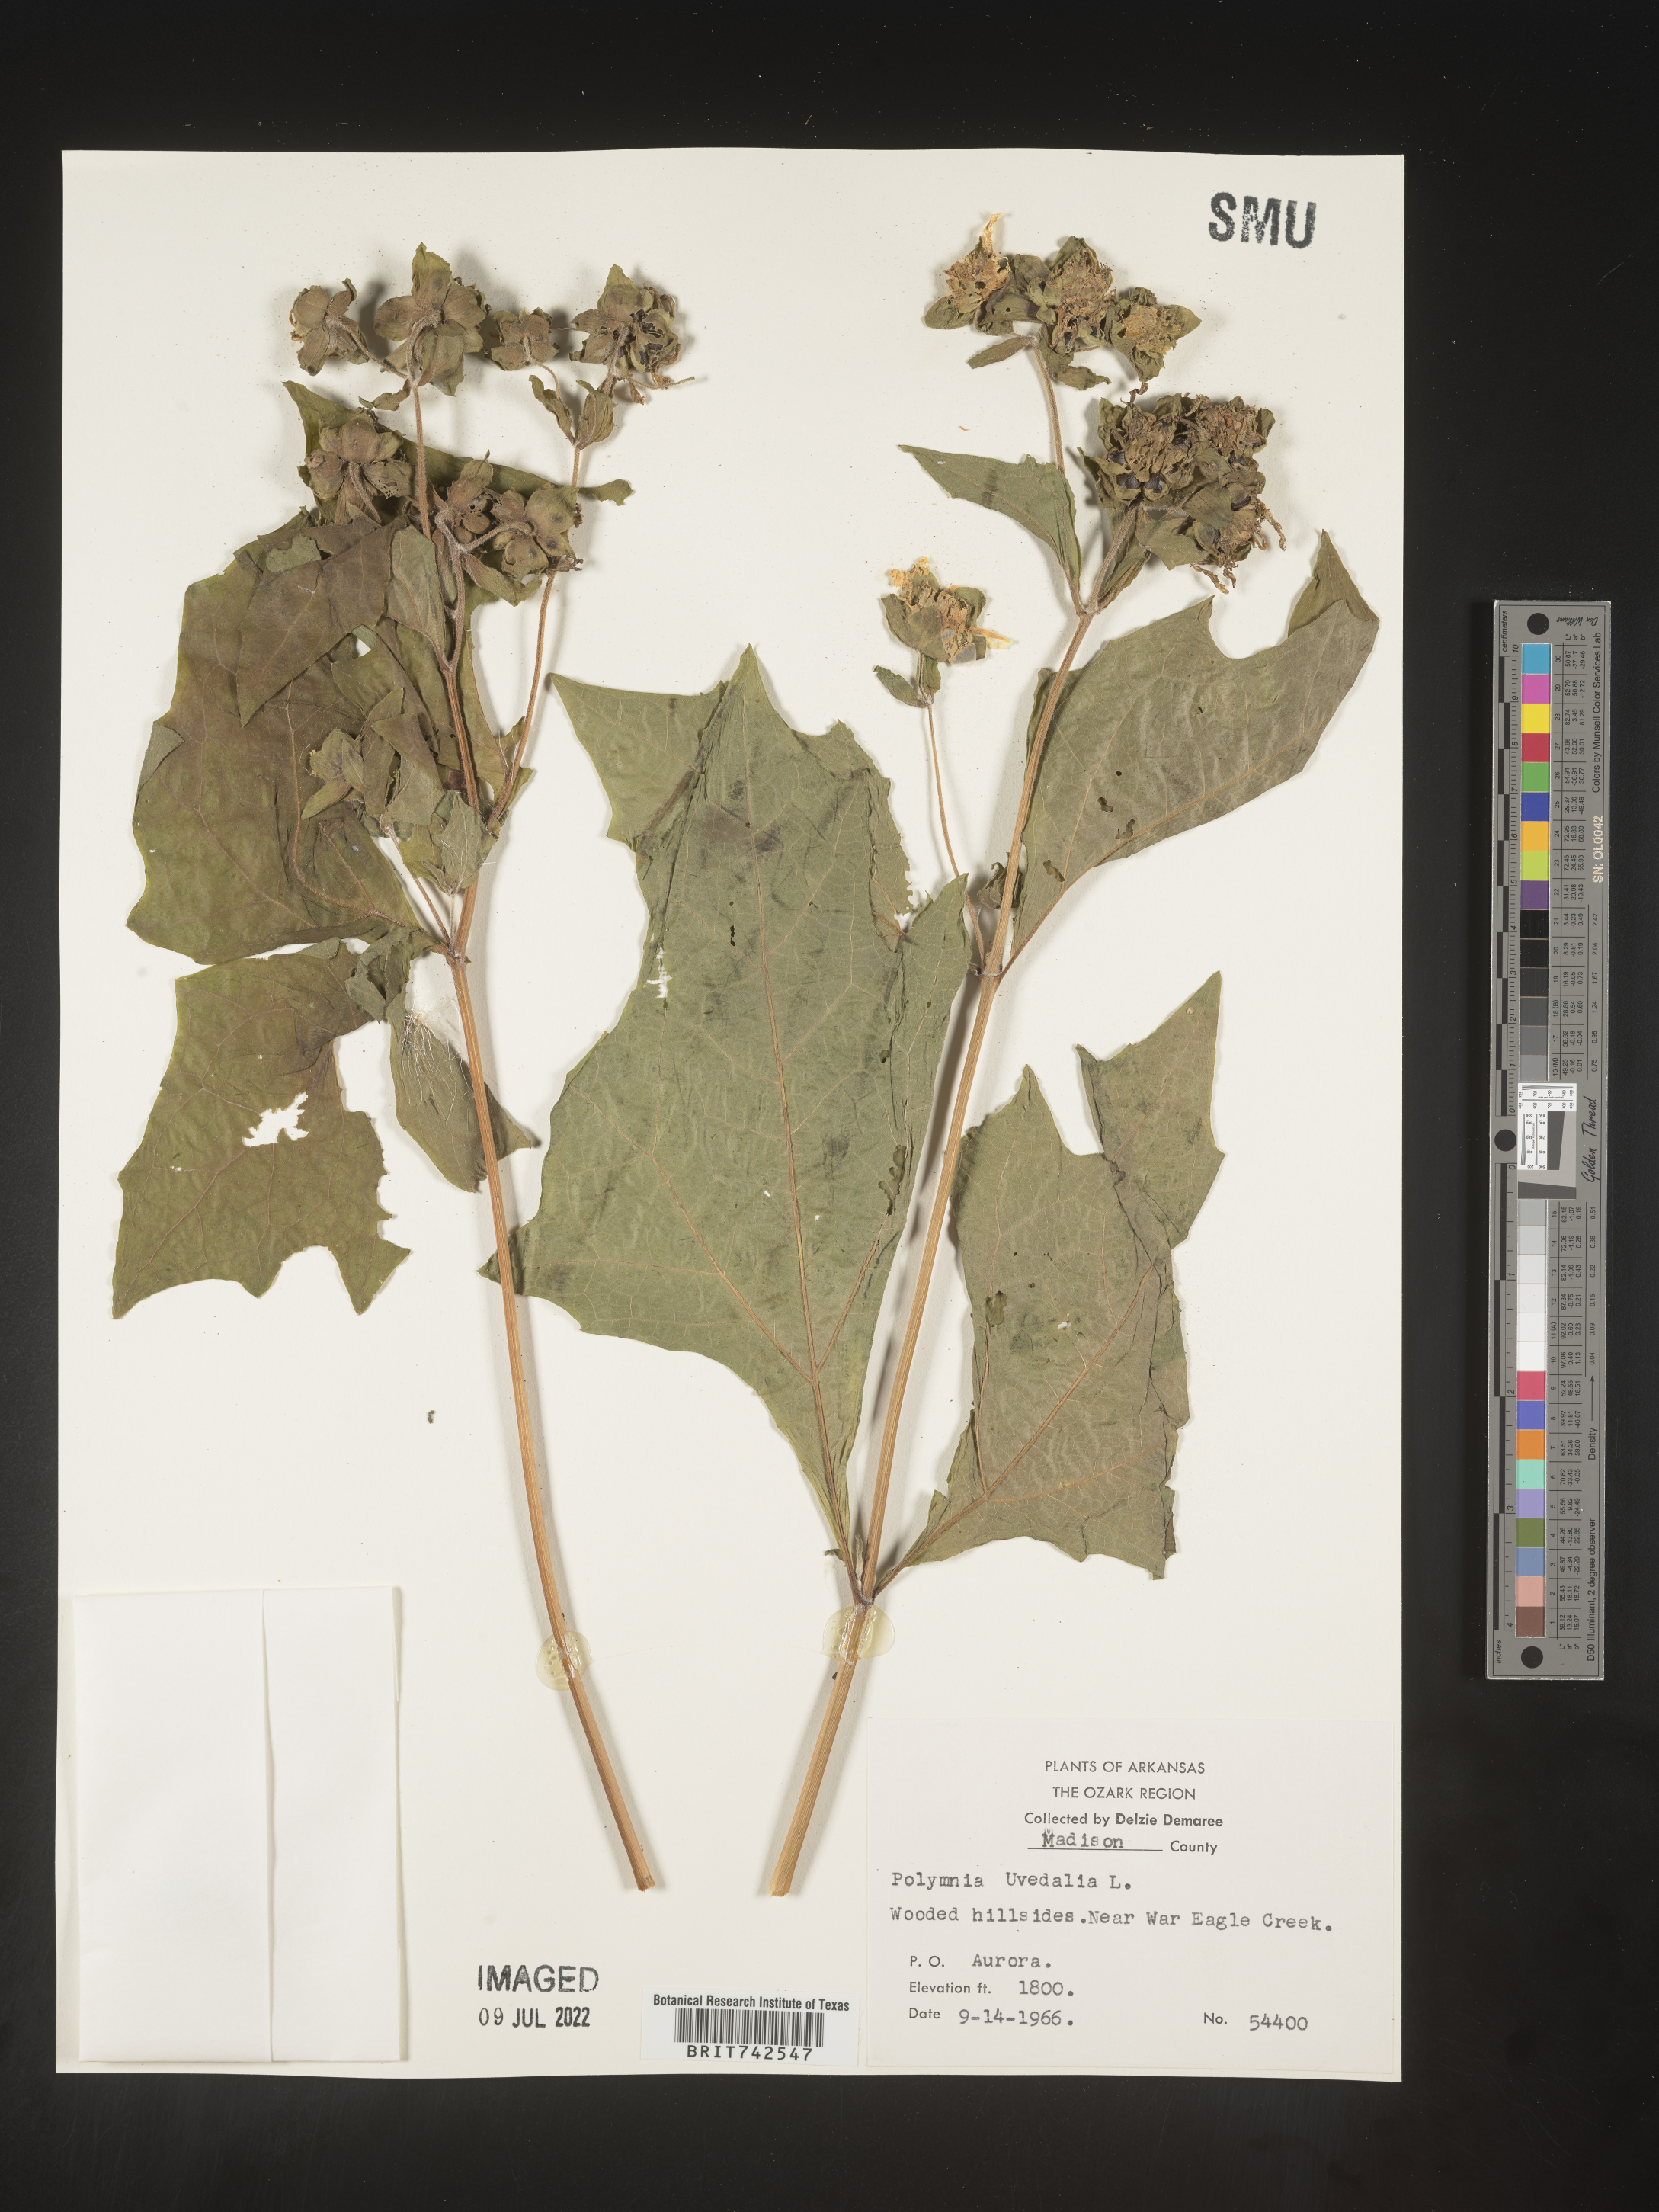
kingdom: Plantae
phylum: Tracheophyta
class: Magnoliopsida
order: Asterales
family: Asteraceae
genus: Smallanthus
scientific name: Smallanthus uvedalia
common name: Bear's-foot
